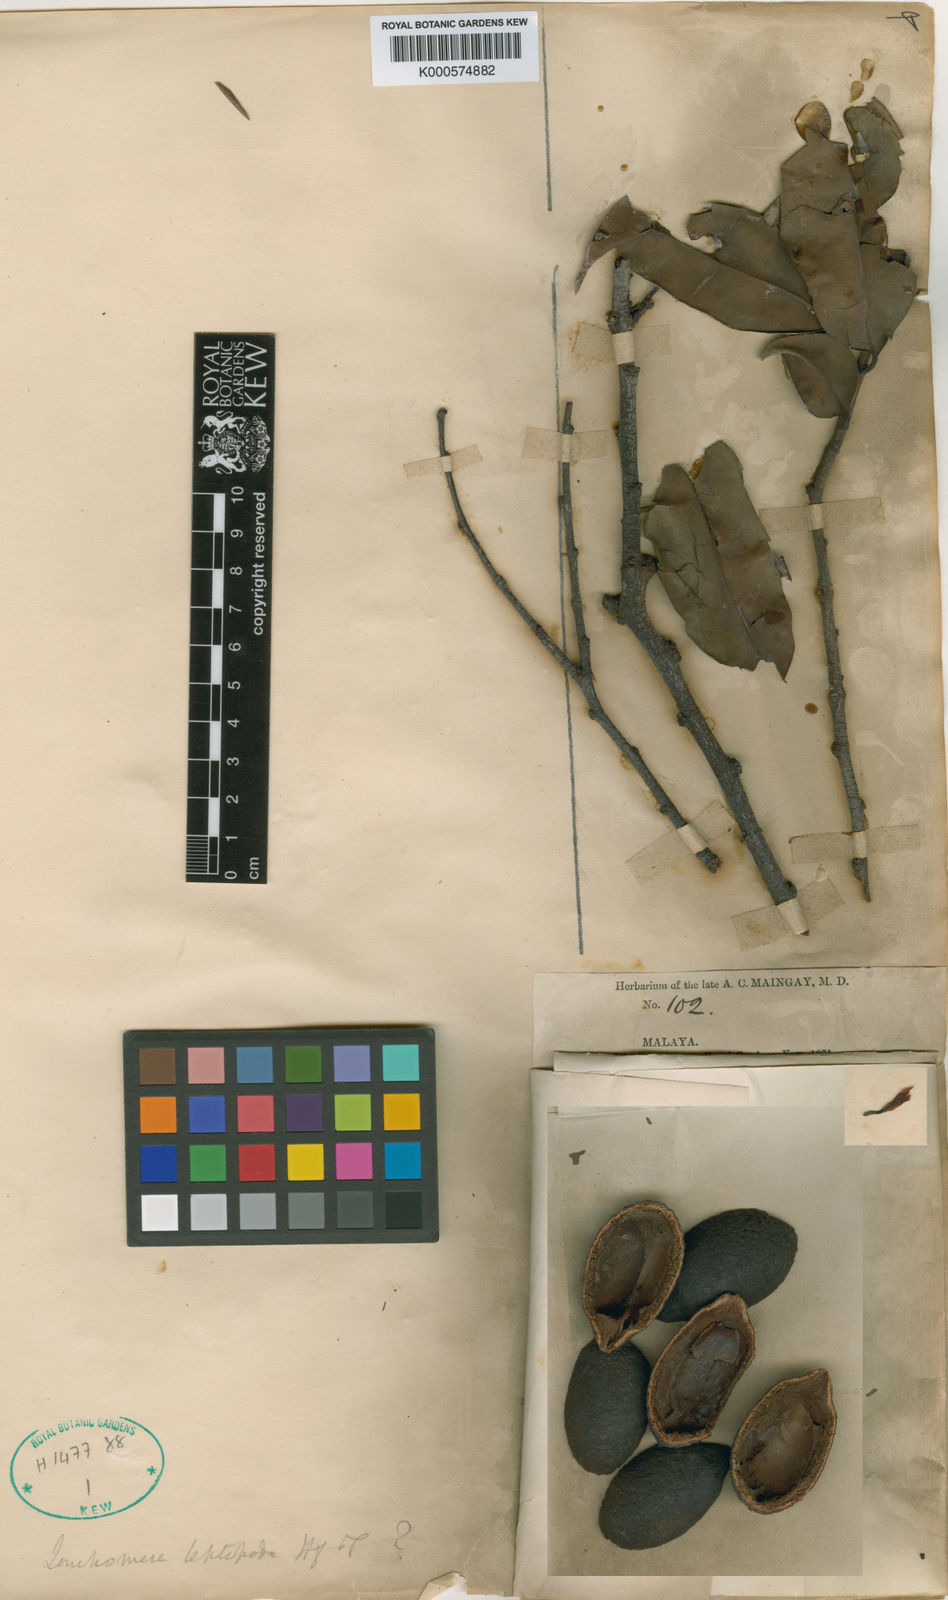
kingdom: Plantae
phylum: Tracheophyta
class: Magnoliopsida
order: Magnoliales
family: Annonaceae
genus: Mezzettia
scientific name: Mezzettia parviflora
